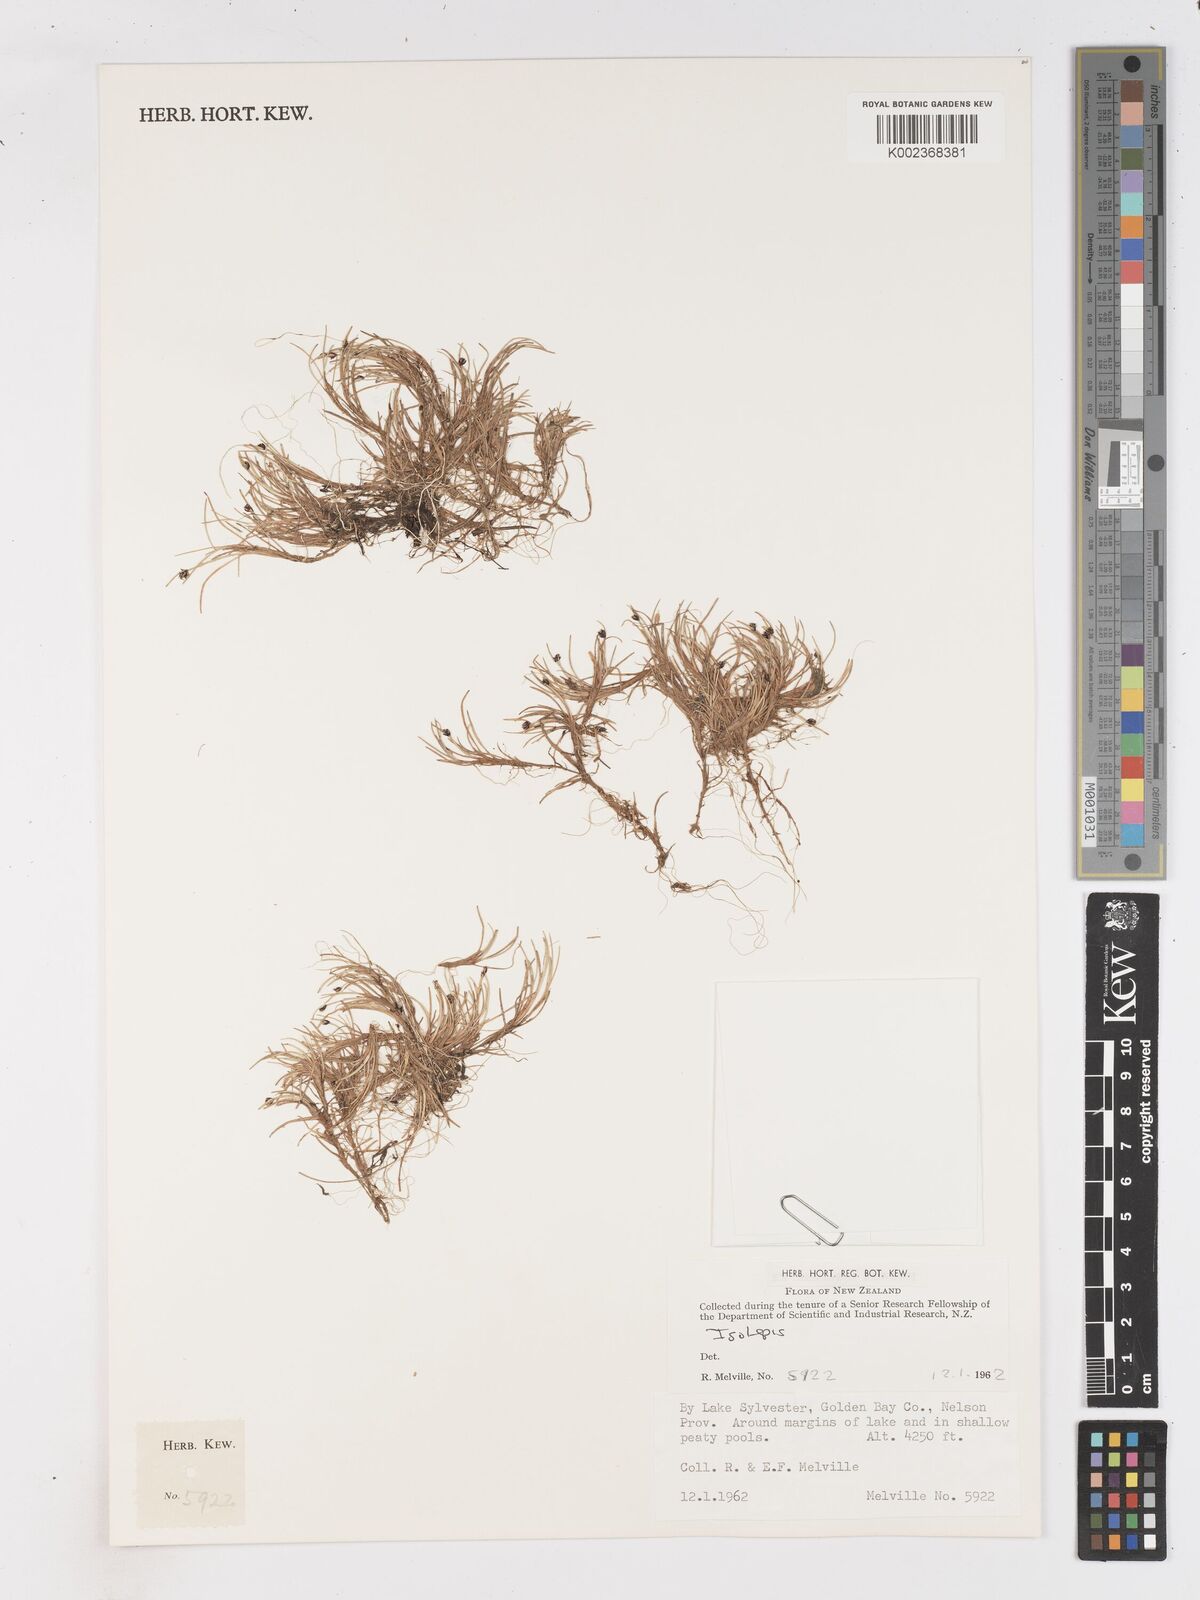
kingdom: Plantae
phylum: Tracheophyta
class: Liliopsida
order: Poales
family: Cyperaceae
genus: Isolepis
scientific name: Isolepis
